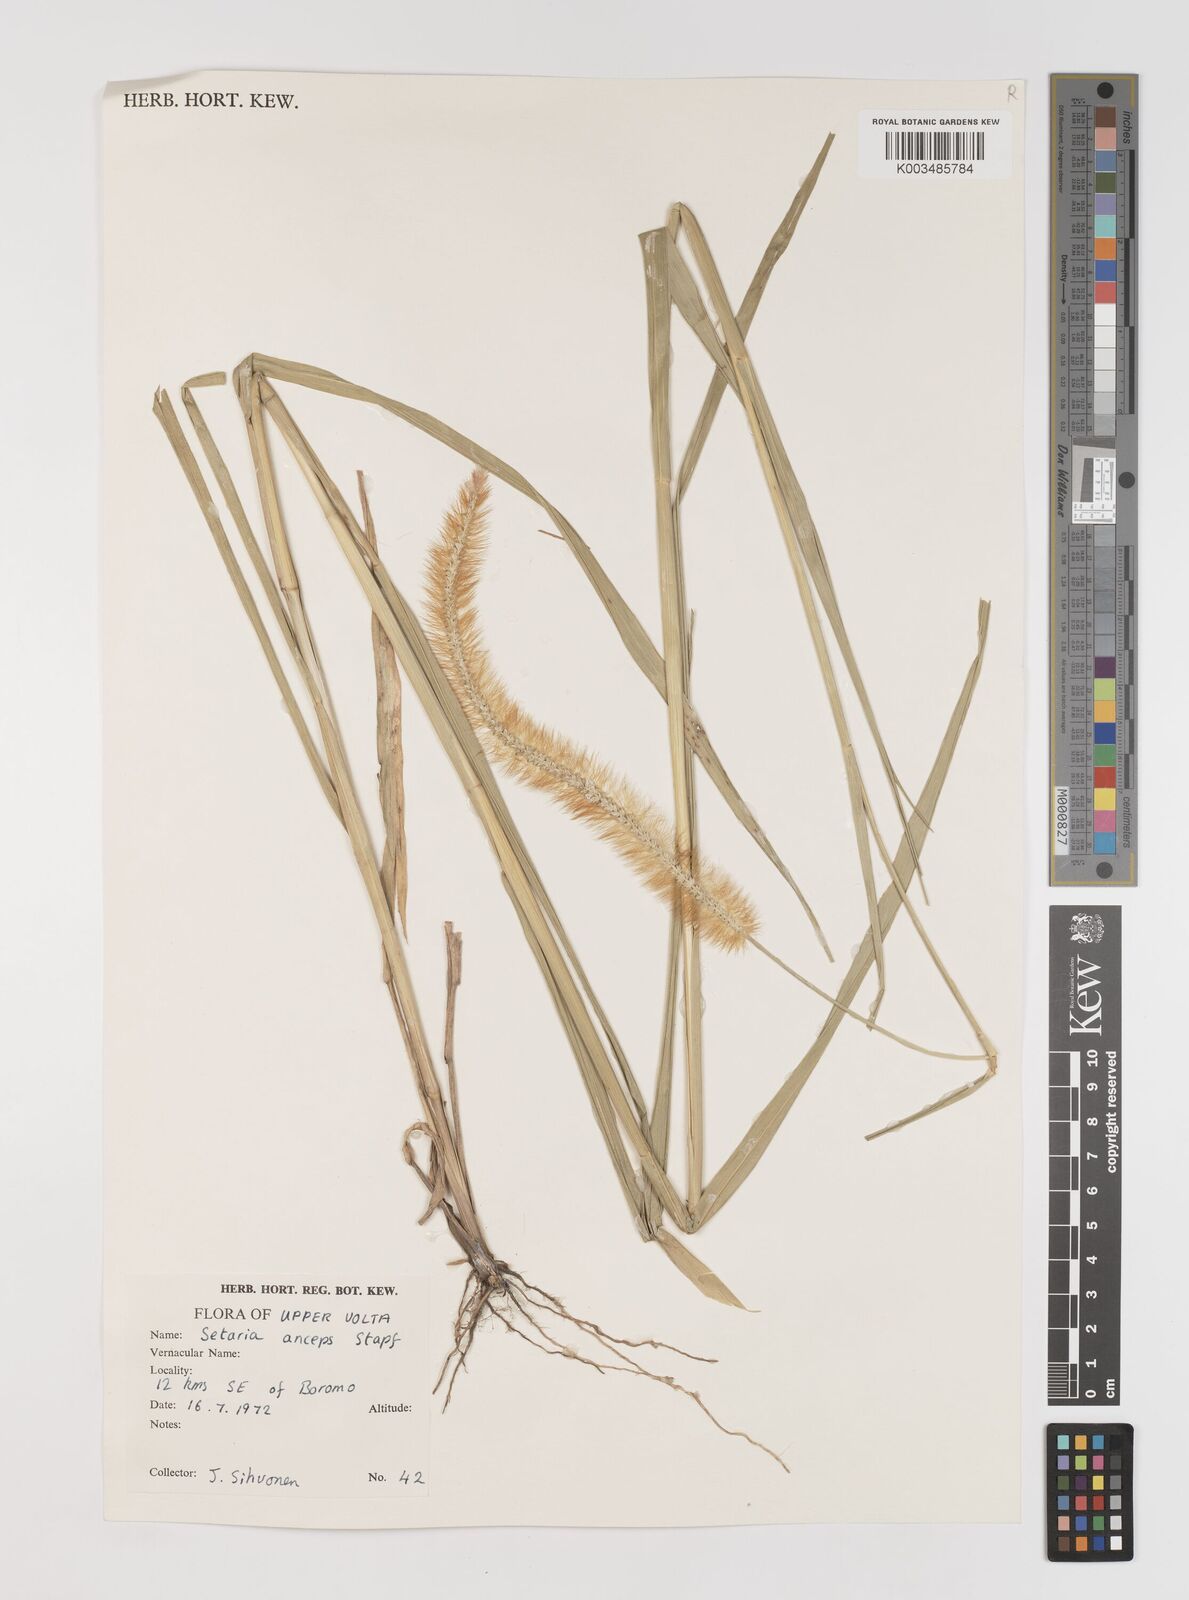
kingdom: Plantae
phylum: Tracheophyta
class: Liliopsida
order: Poales
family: Poaceae
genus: Setaria
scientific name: Setaria sphacelata
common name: African bristlegrass
